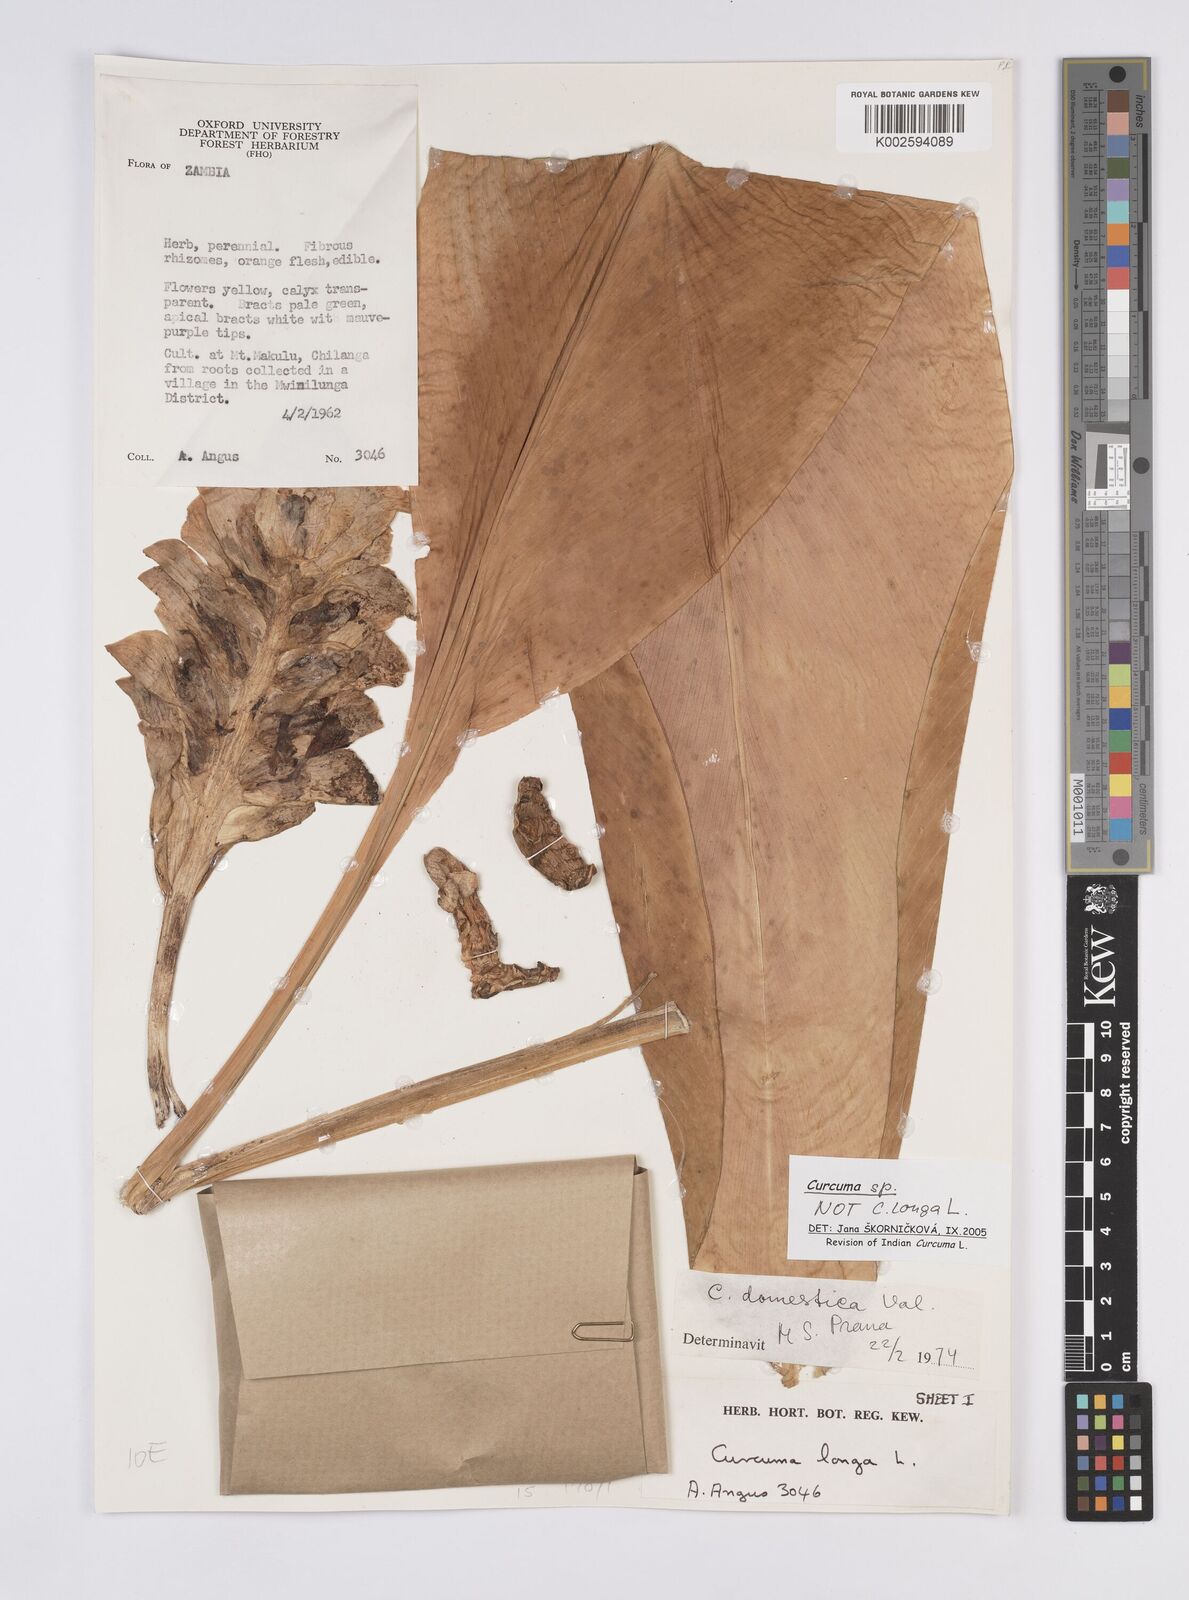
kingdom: Plantae
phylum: Tracheophyta
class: Liliopsida
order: Zingiberales
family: Zingiberaceae
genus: Curcuma
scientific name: Curcuma
